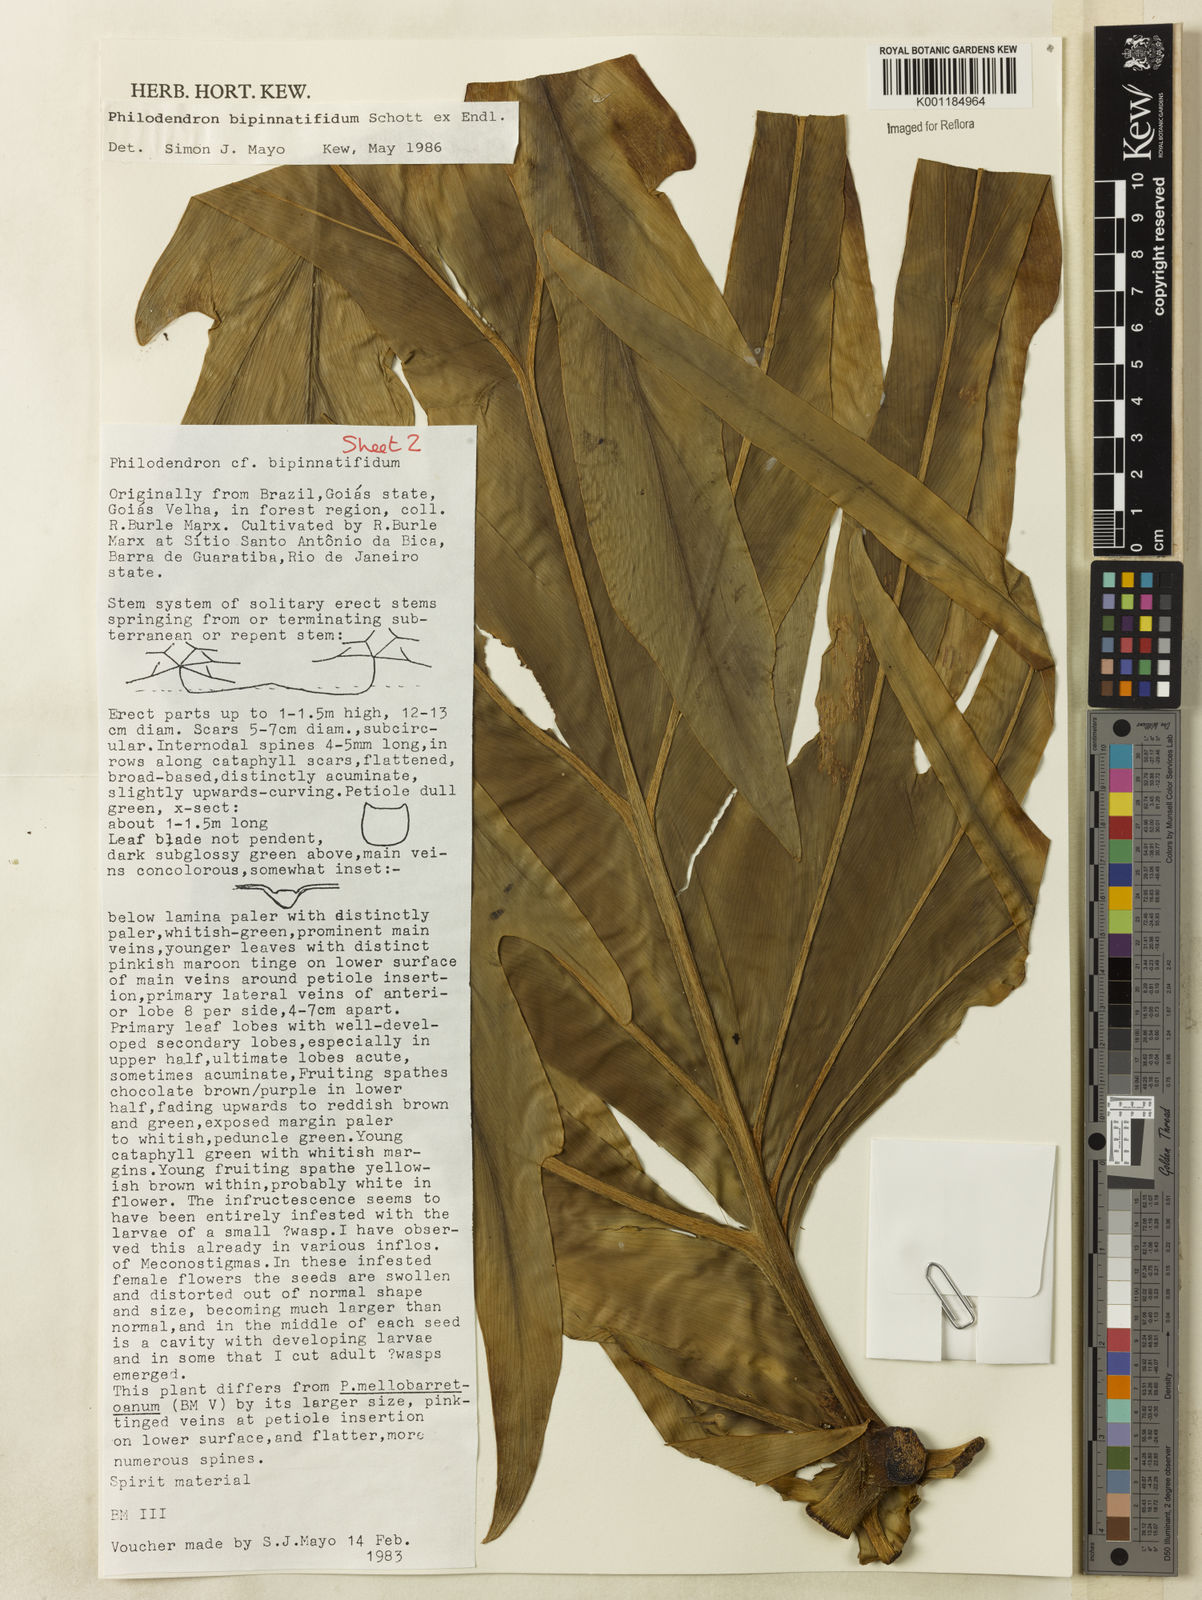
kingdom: Plantae
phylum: Tracheophyta
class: Liliopsida
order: Alismatales
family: Araceae
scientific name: Araceae
